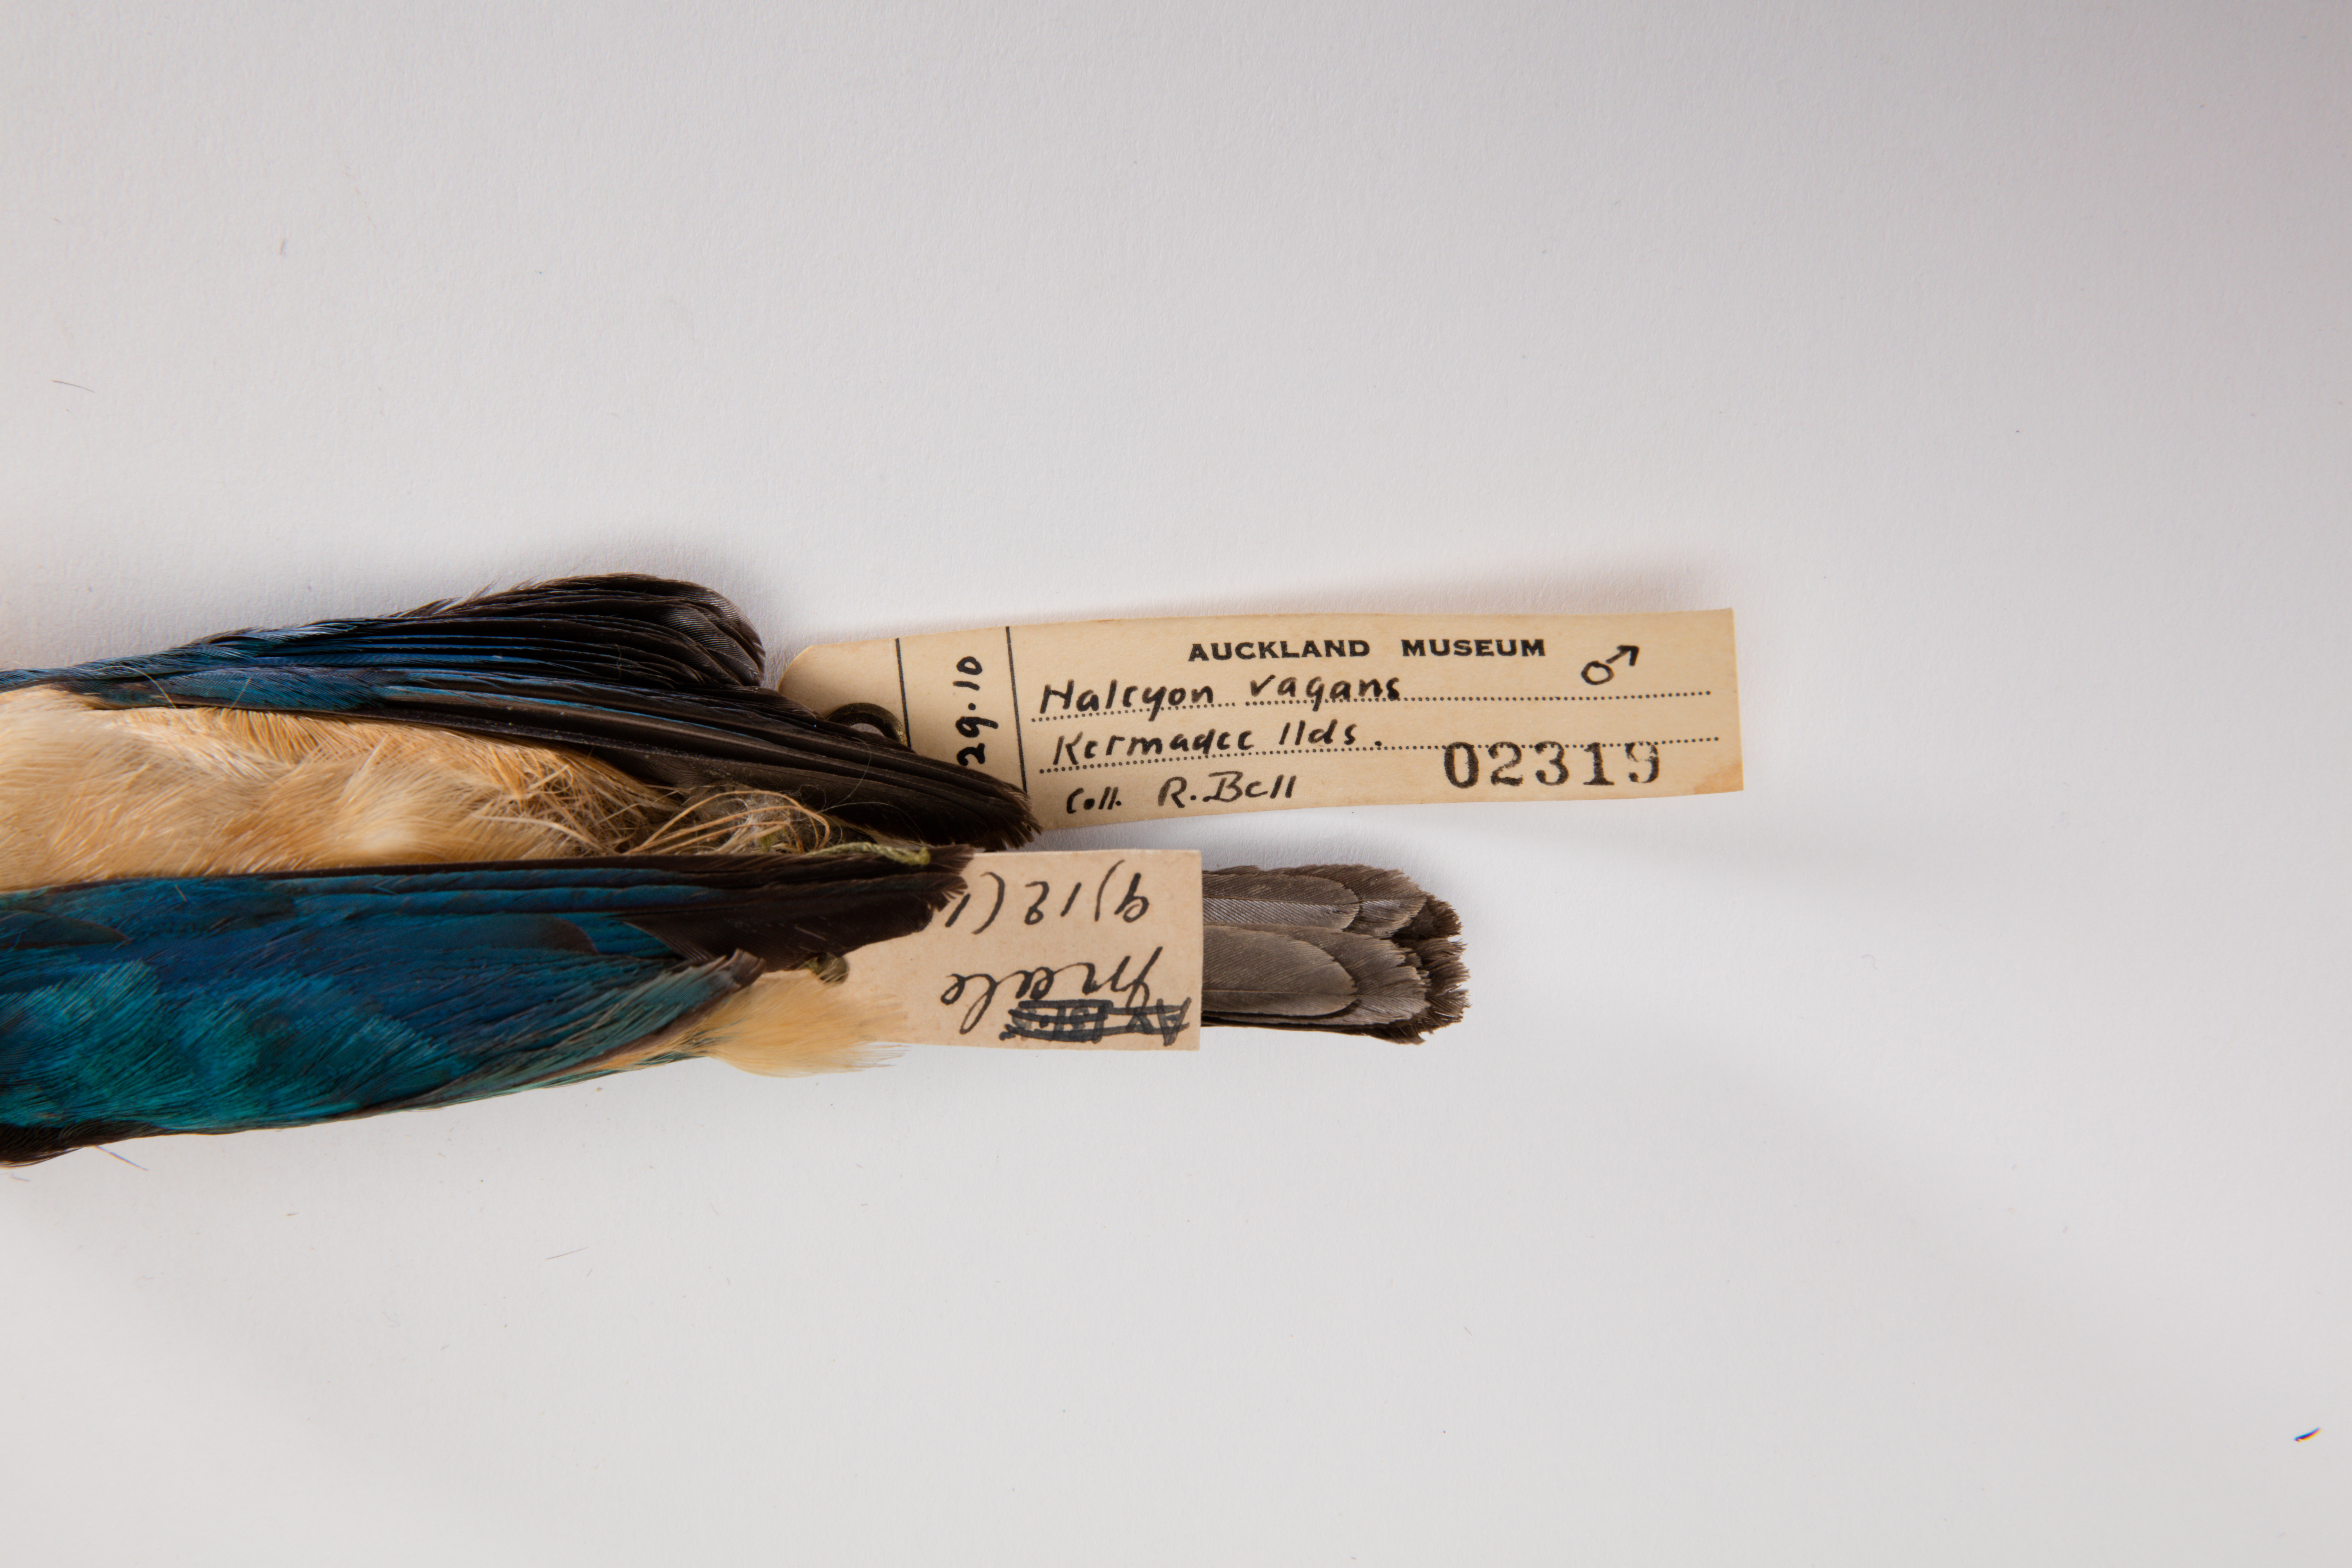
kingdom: Animalia
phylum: Chordata
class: Aves
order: Coraciiformes
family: Alcedinidae
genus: Todiramphus
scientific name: Todiramphus sanctus
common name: Sacred kingfisher
